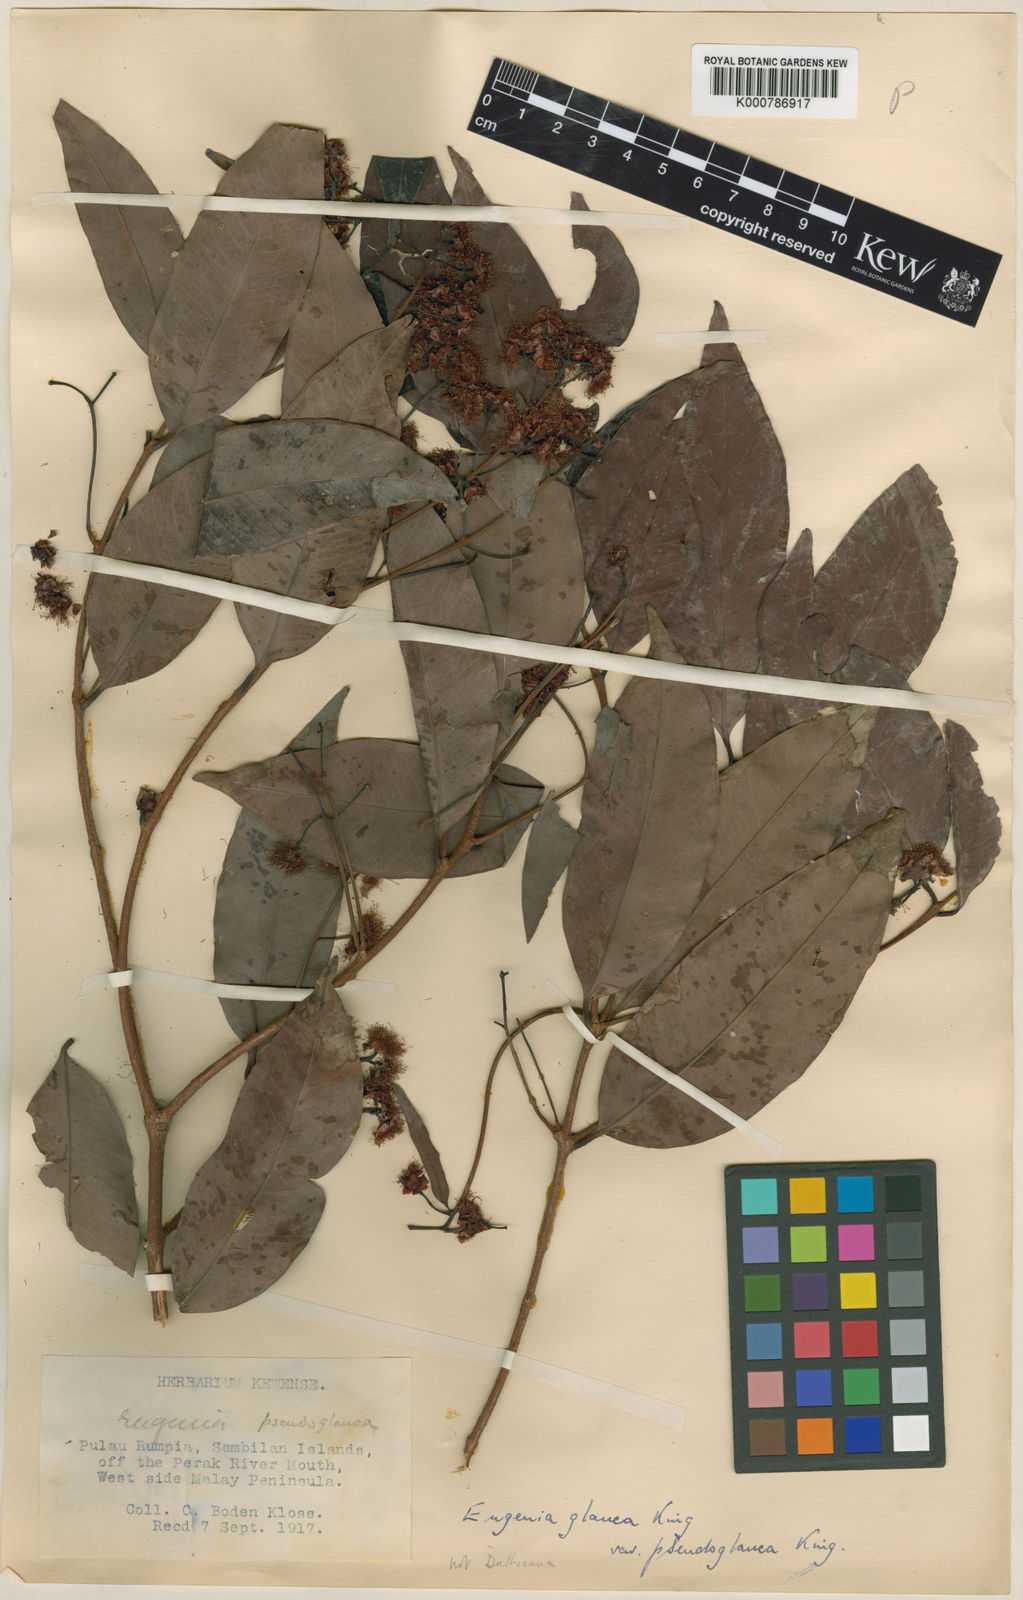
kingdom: Plantae
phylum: Tracheophyta
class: Magnoliopsida
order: Myrtales
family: Myrtaceae
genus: Syzygium
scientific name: Syzygium glaucum
